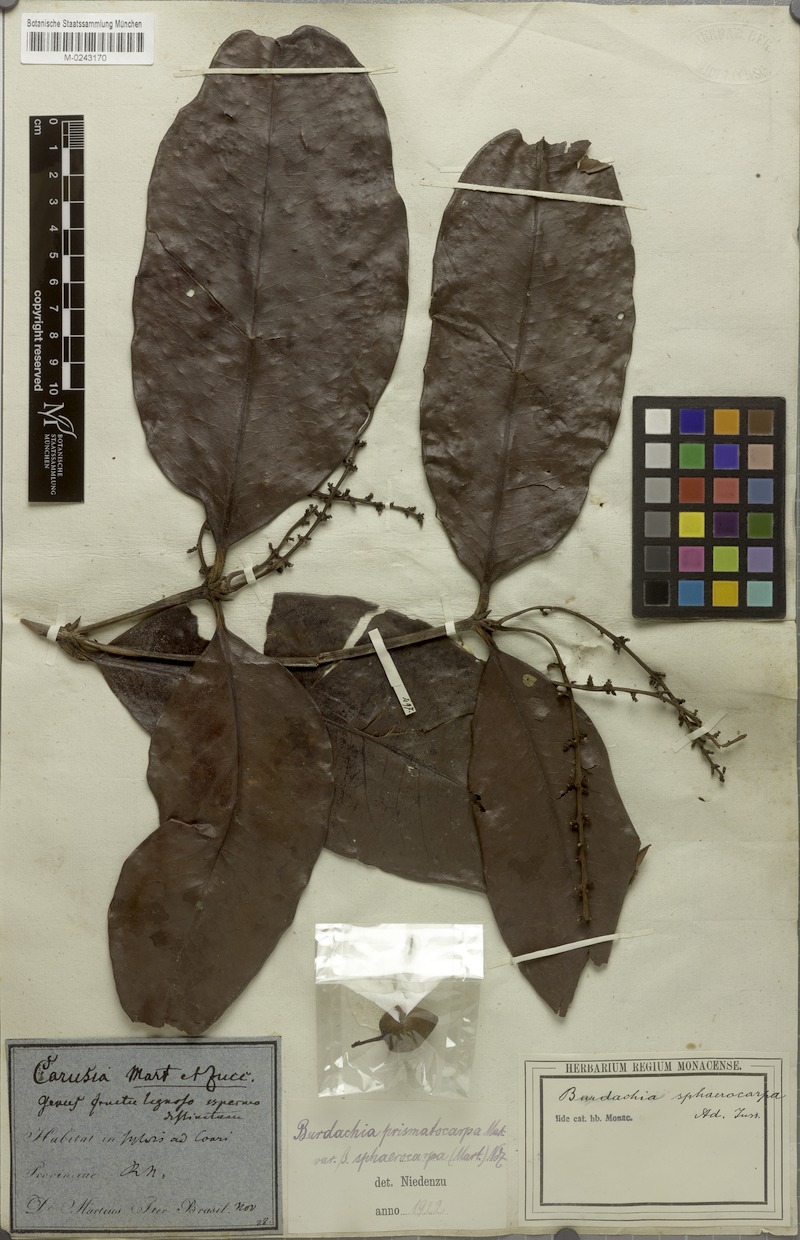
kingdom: Plantae
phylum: Tracheophyta
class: Magnoliopsida
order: Malpighiales
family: Malpighiaceae
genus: Burdachia
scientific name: Burdachia sphaerocarpa
